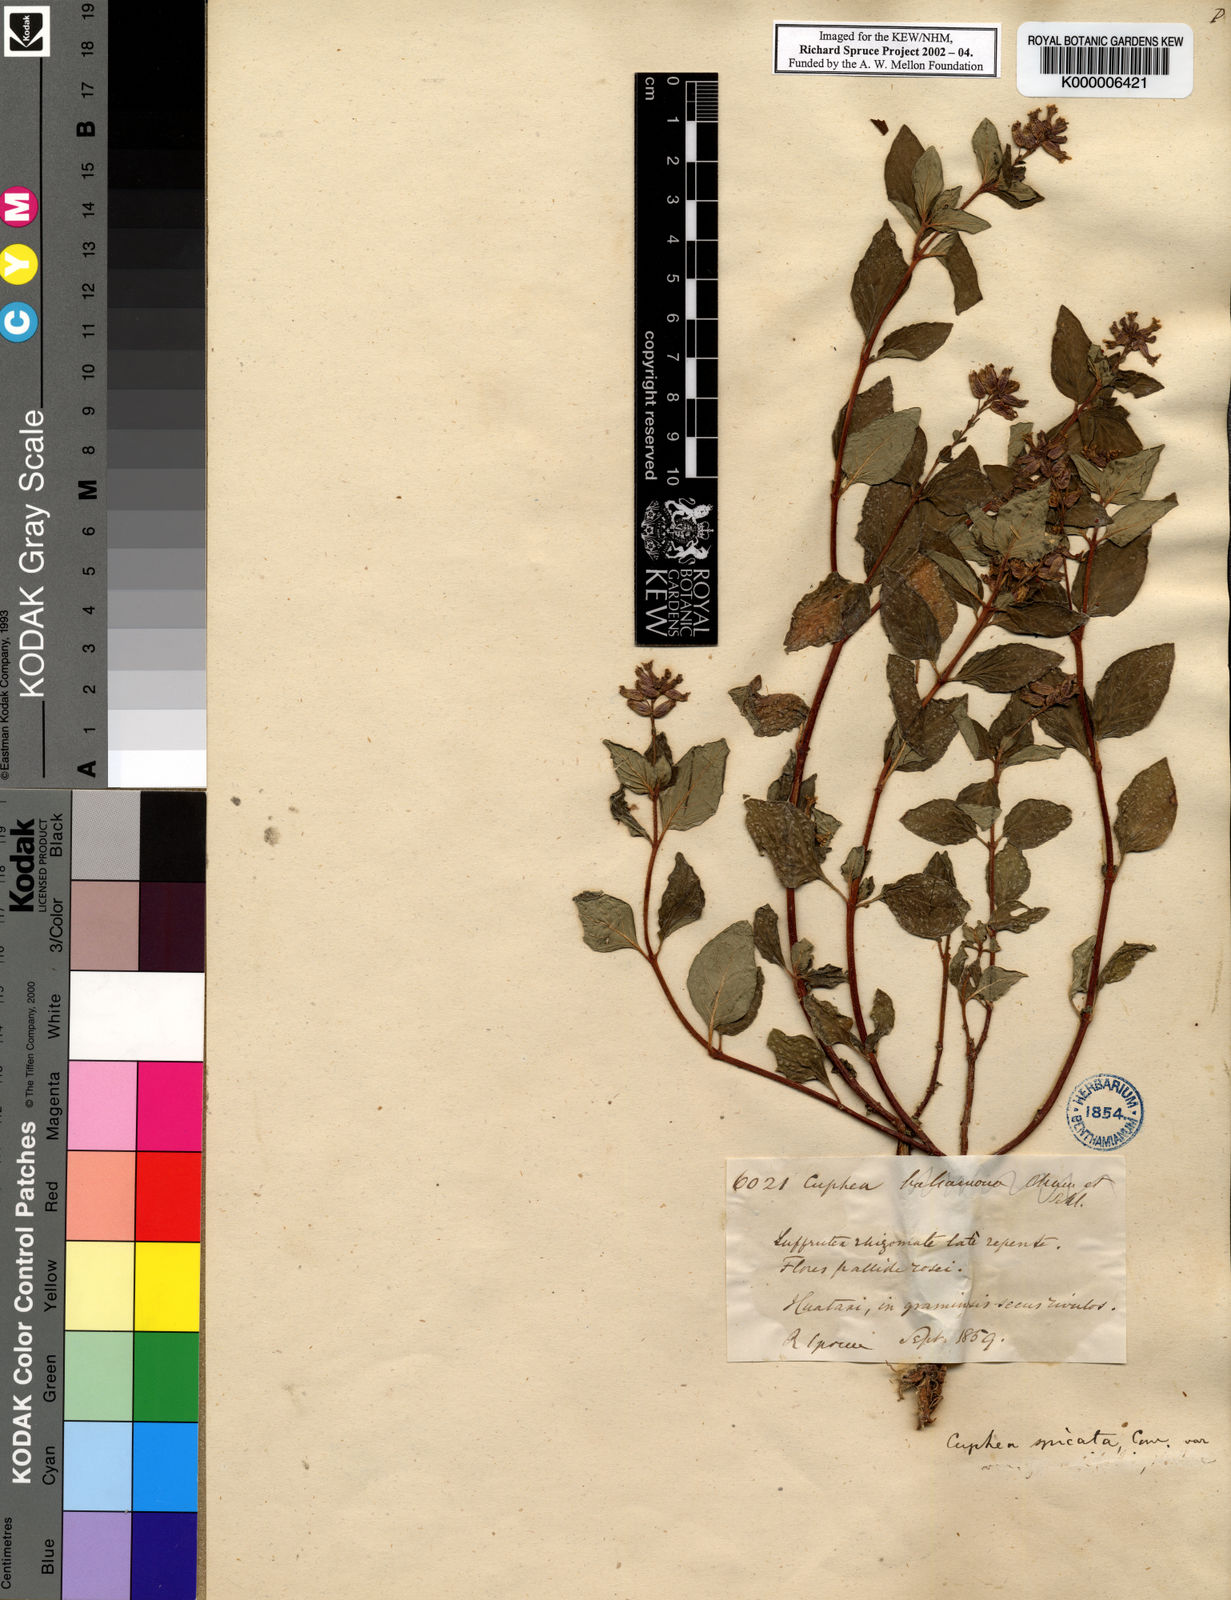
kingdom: Plantae
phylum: Tracheophyta
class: Magnoliopsida
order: Myrtales
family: Lythraceae
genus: Cuphea
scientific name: Cuphea racemosa
